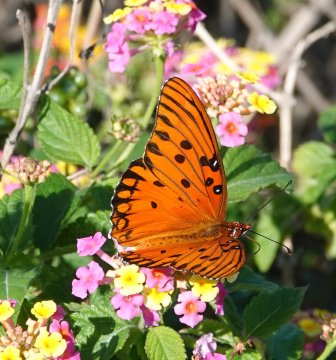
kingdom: Animalia
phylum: Arthropoda
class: Insecta
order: Lepidoptera
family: Nymphalidae
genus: Dione
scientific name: Dione vanillae
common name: Gulf Fritillary
